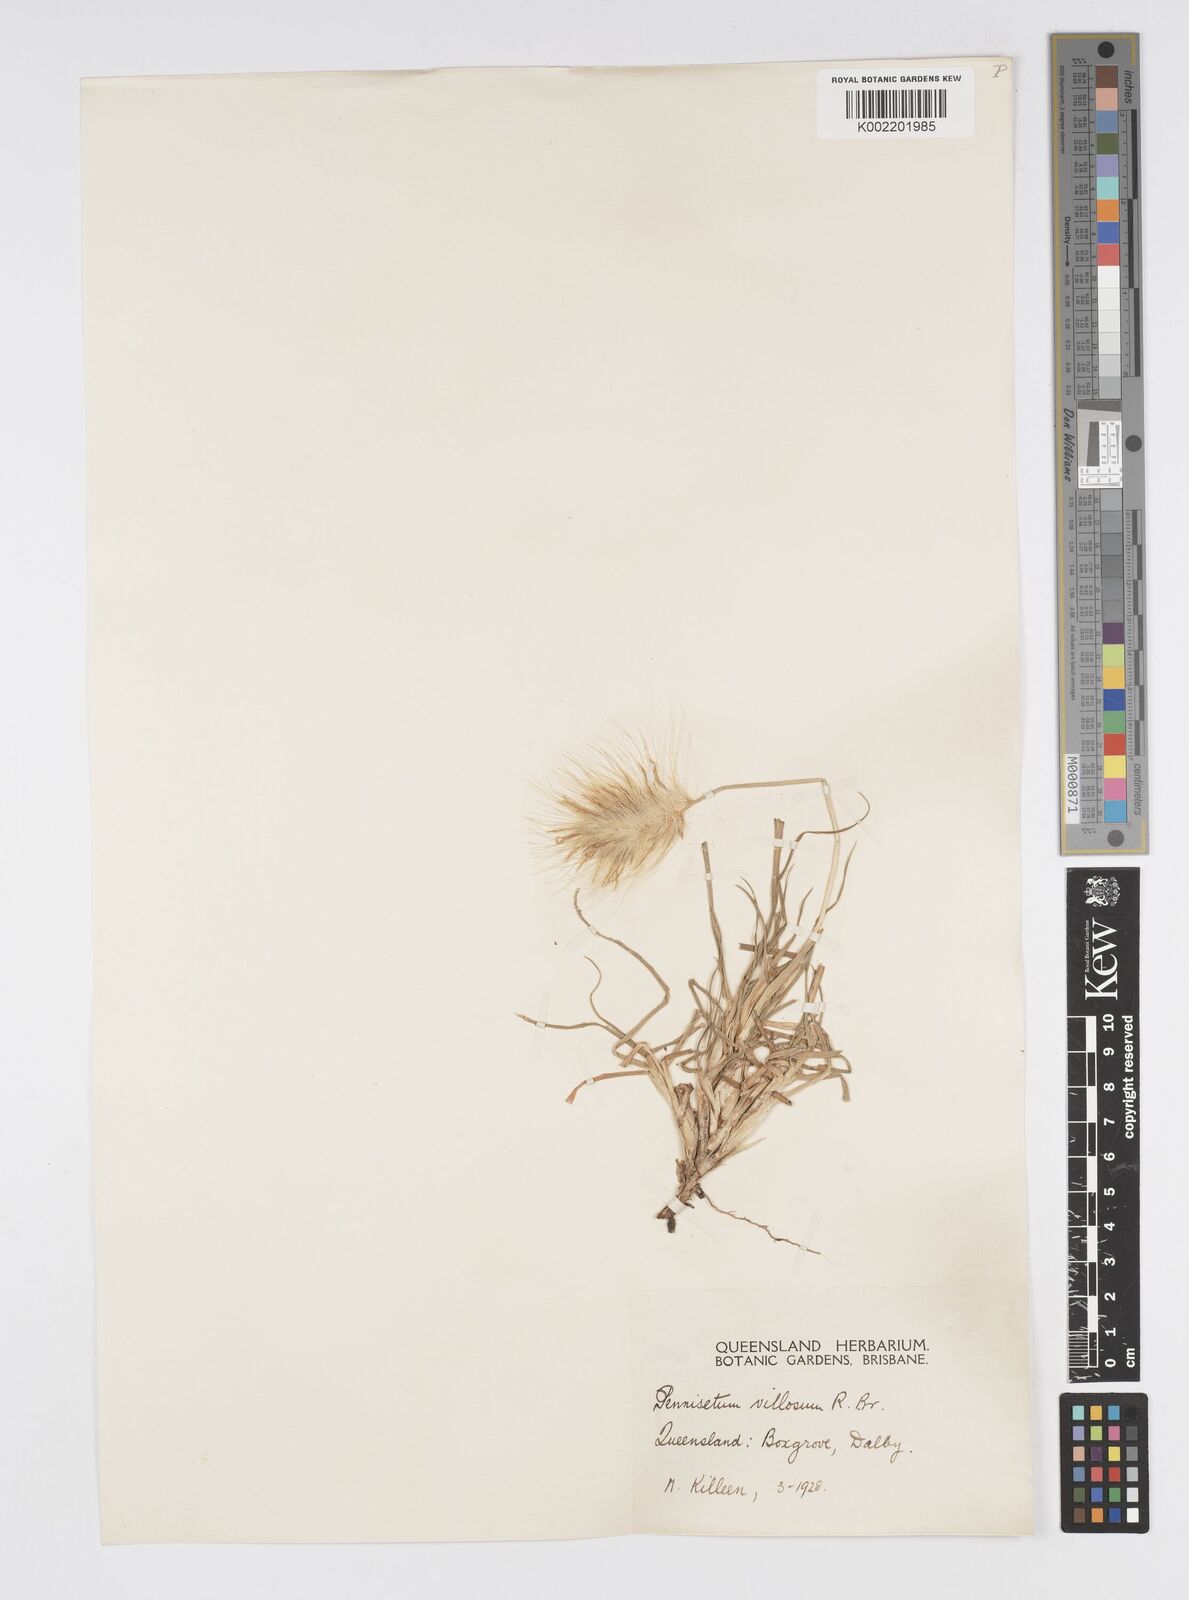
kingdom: Plantae
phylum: Tracheophyta
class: Liliopsida
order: Poales
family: Poaceae
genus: Cenchrus
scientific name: Cenchrus longisetus
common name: Feathertop
